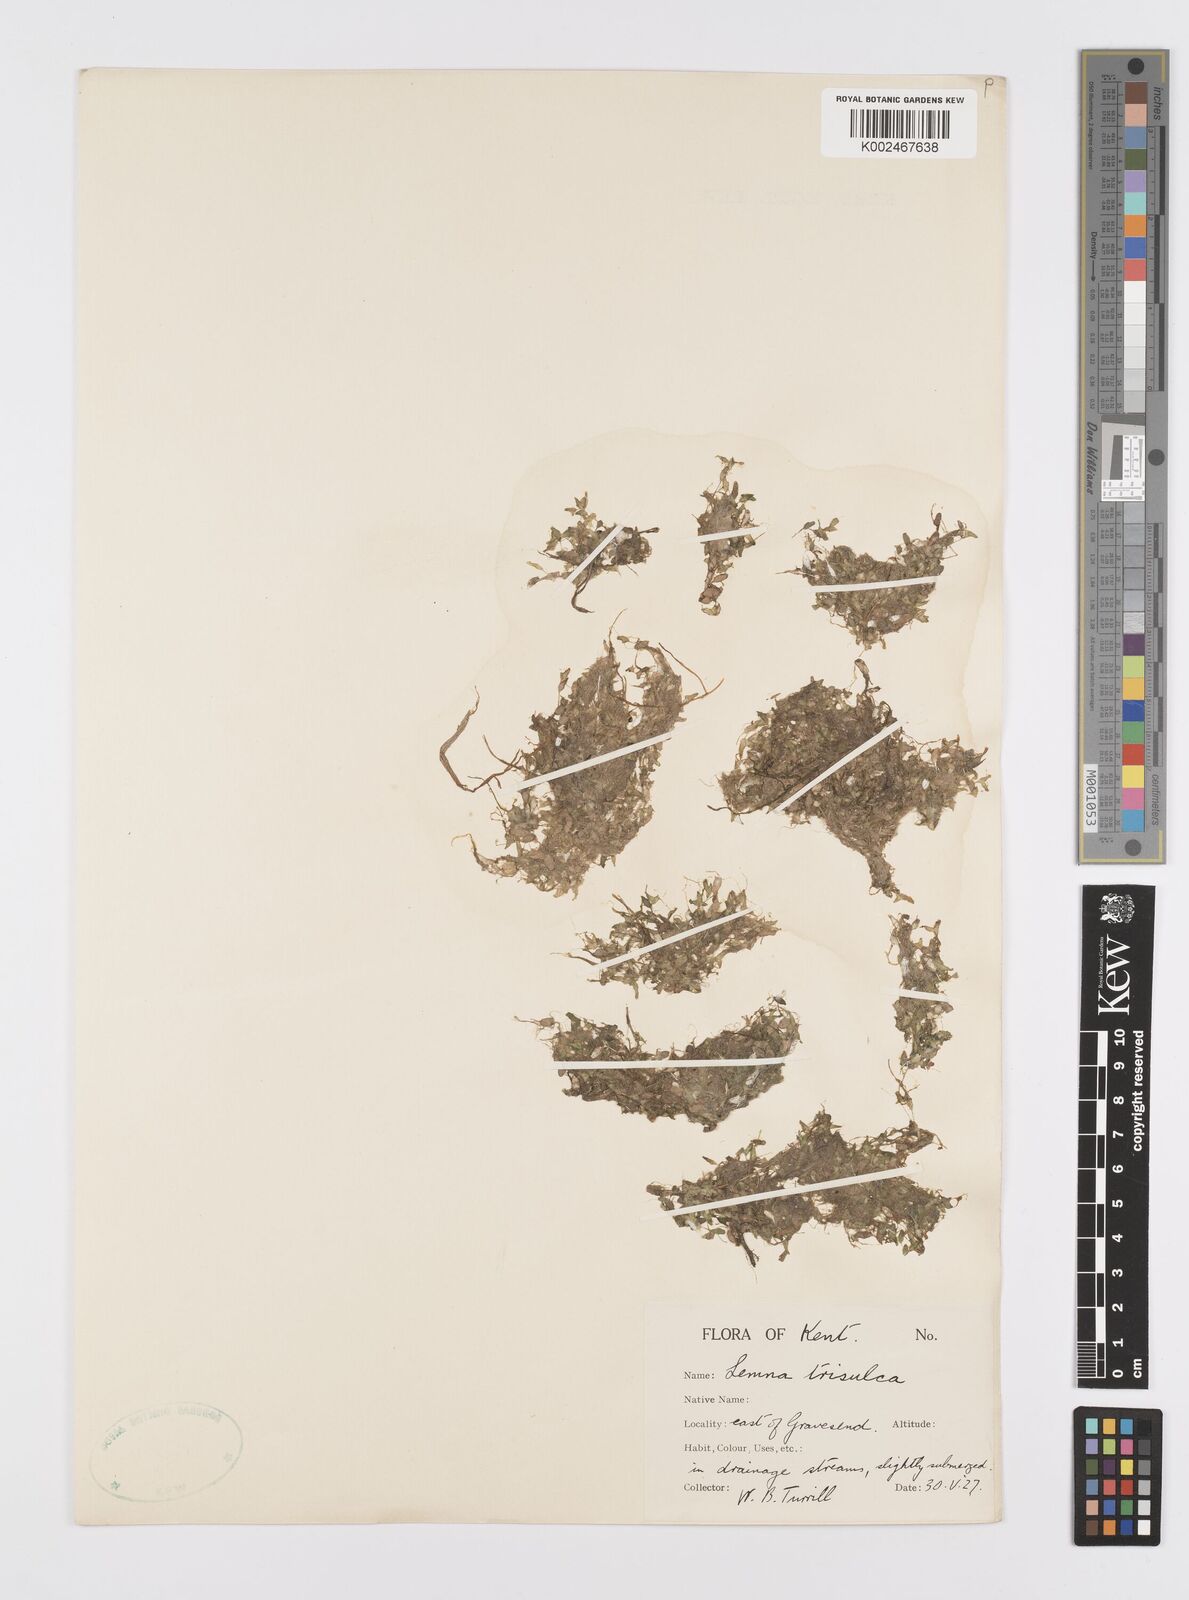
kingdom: Plantae
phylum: Tracheophyta
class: Liliopsida
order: Alismatales
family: Araceae
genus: Lemna
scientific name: Lemna trisulca
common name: Ivy-leaved duckweed
